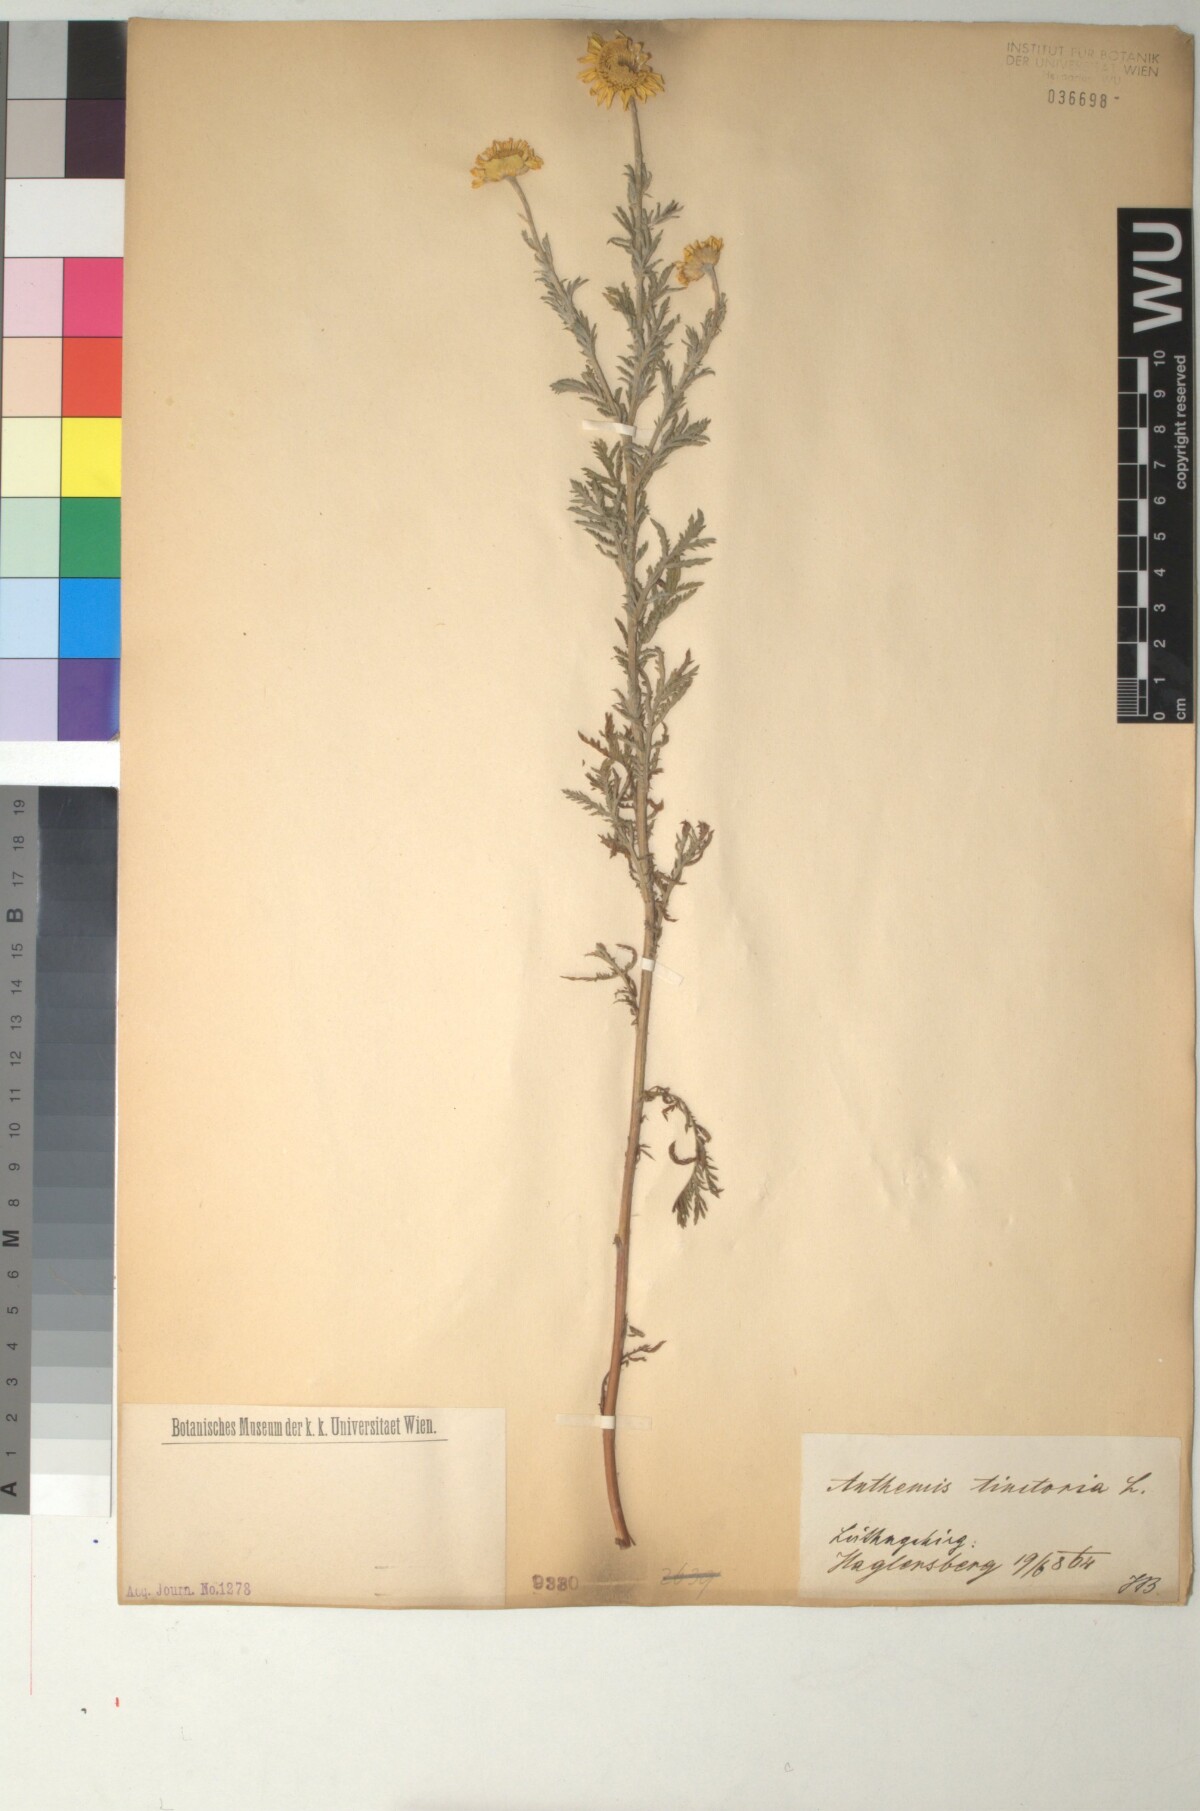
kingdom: Plantae
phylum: Tracheophyta
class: Magnoliopsida
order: Asterales
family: Asteraceae
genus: Cota
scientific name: Cota tinctoria
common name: Golden chamomile
